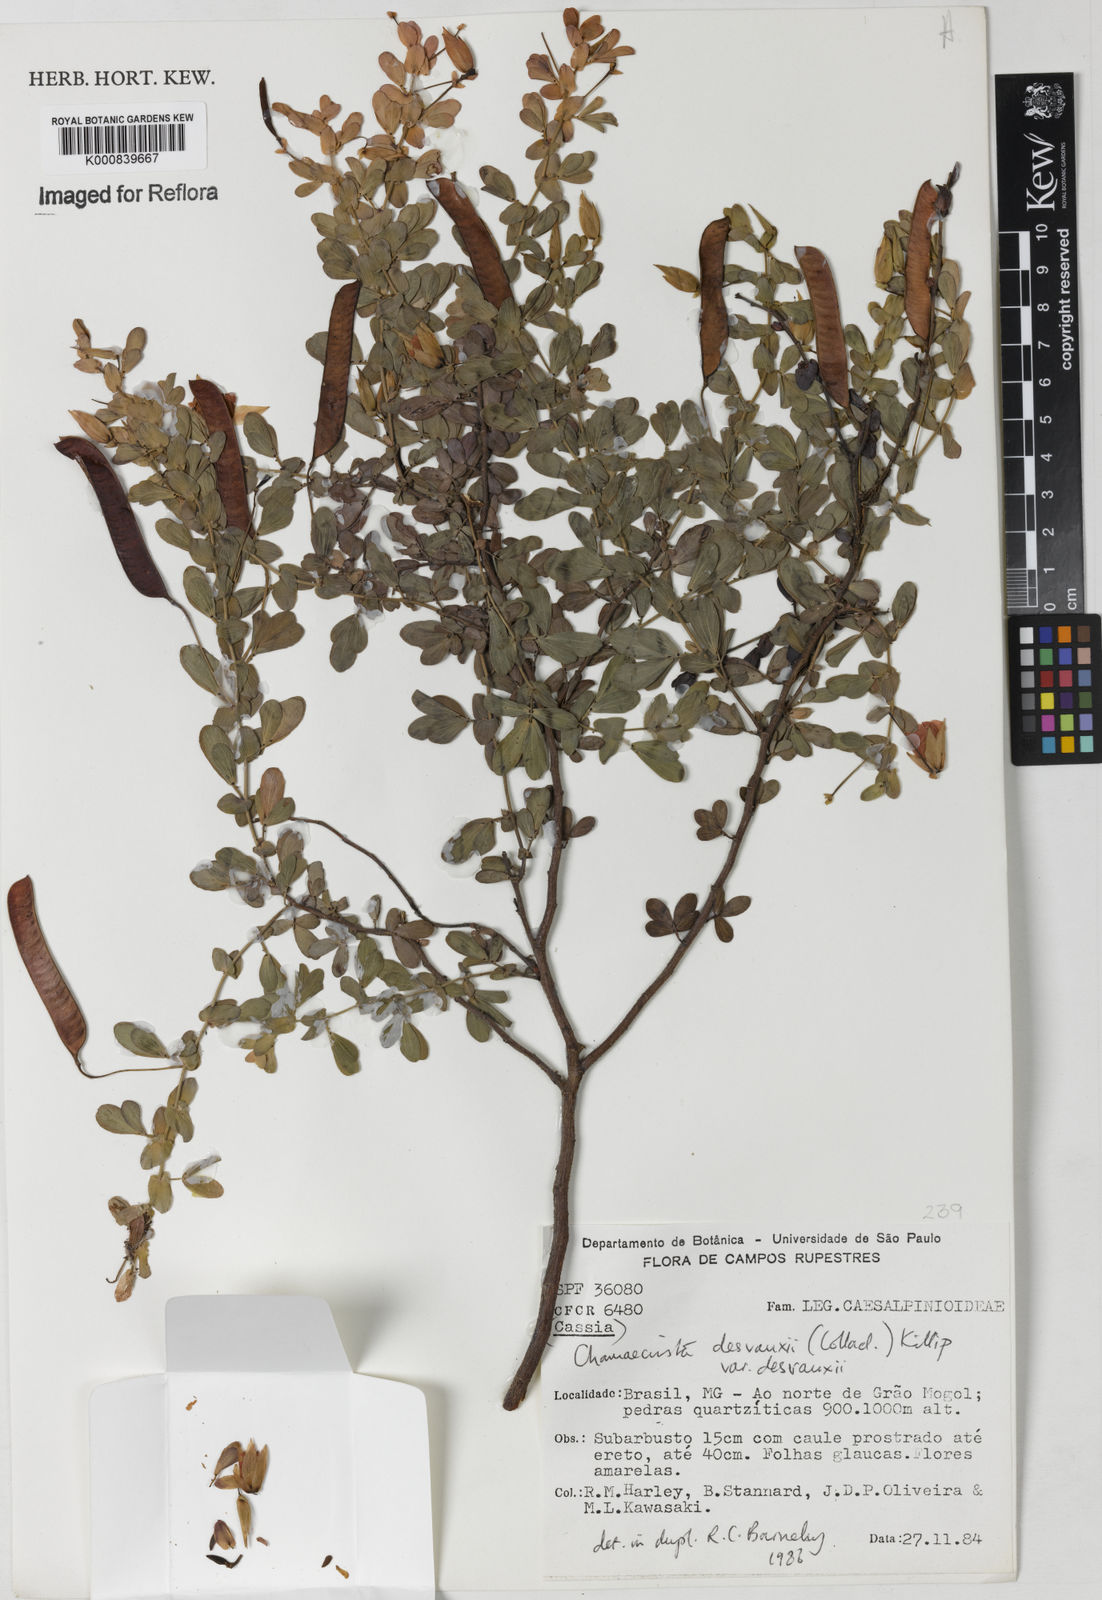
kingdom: Plantae
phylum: Tracheophyta
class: Magnoliopsida
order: Fabales
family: Fabaceae
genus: Chamaecrista
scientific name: Chamaecrista ramosa
